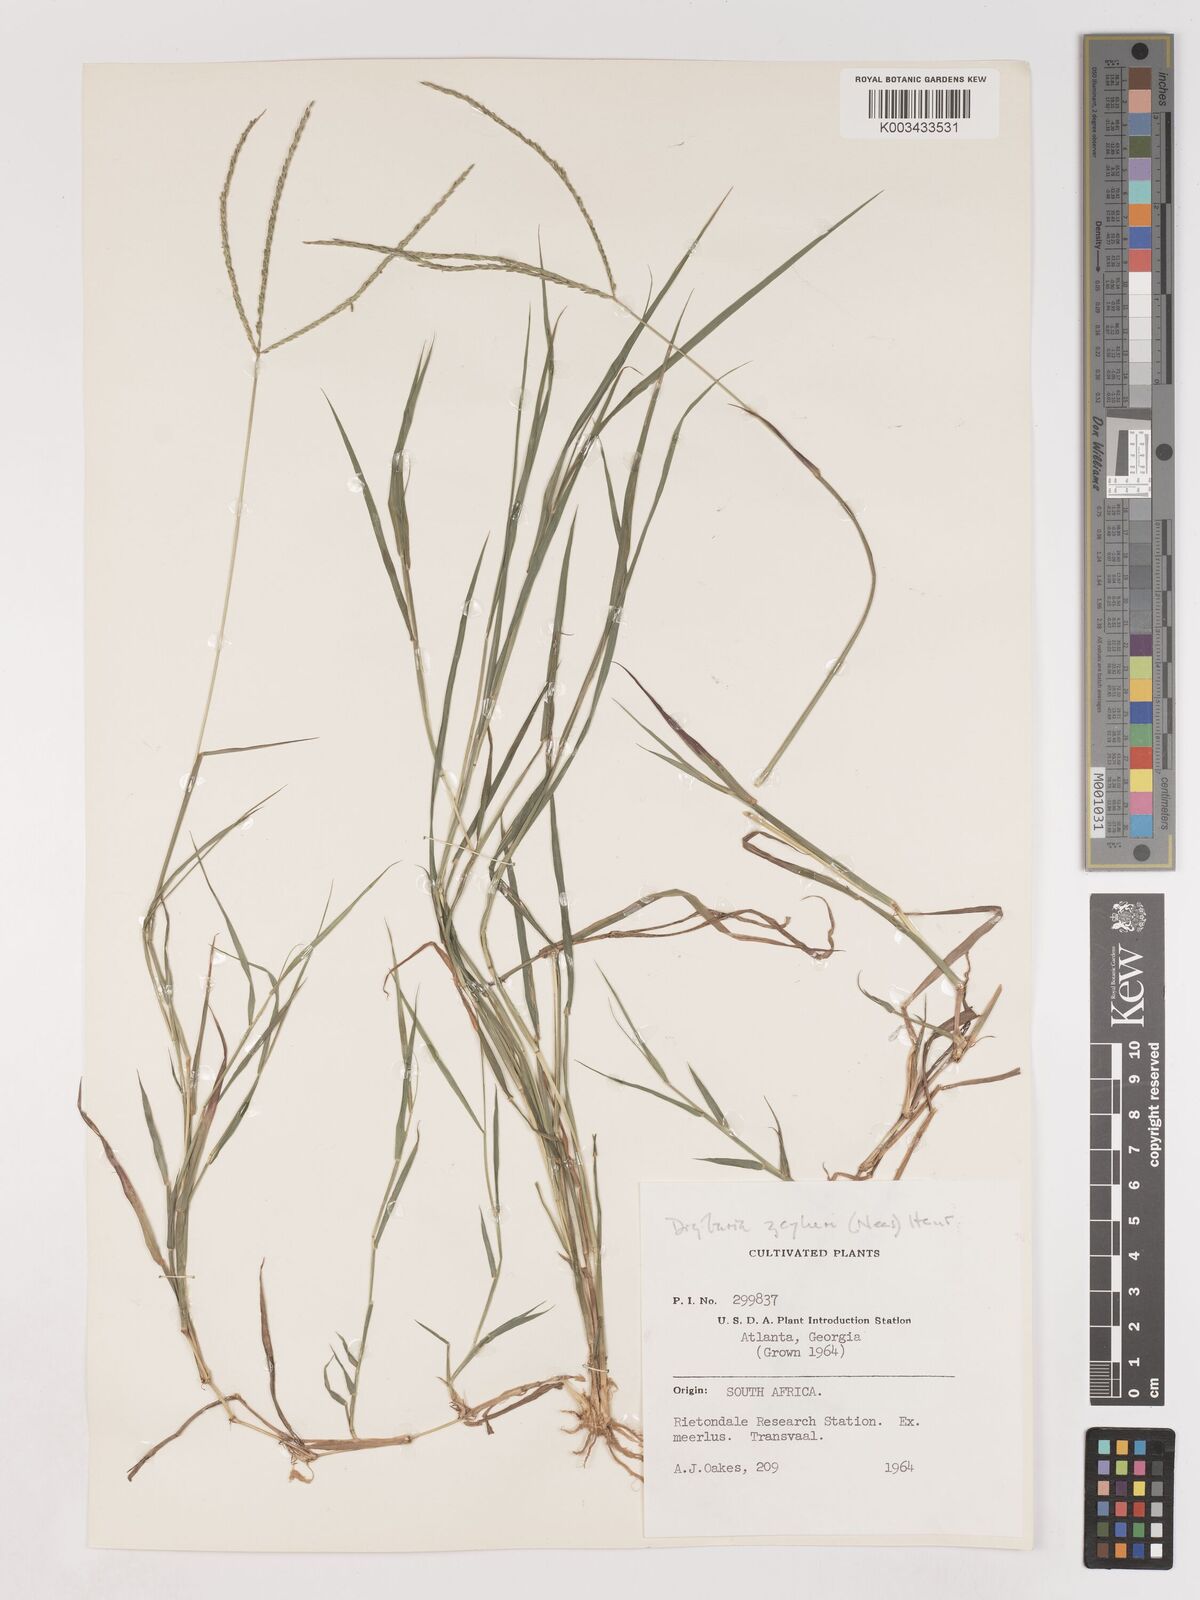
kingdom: Plantae
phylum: Tracheophyta
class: Liliopsida
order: Poales
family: Poaceae
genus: Digitaria
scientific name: Digitaria eriantha
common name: Digitgrass
